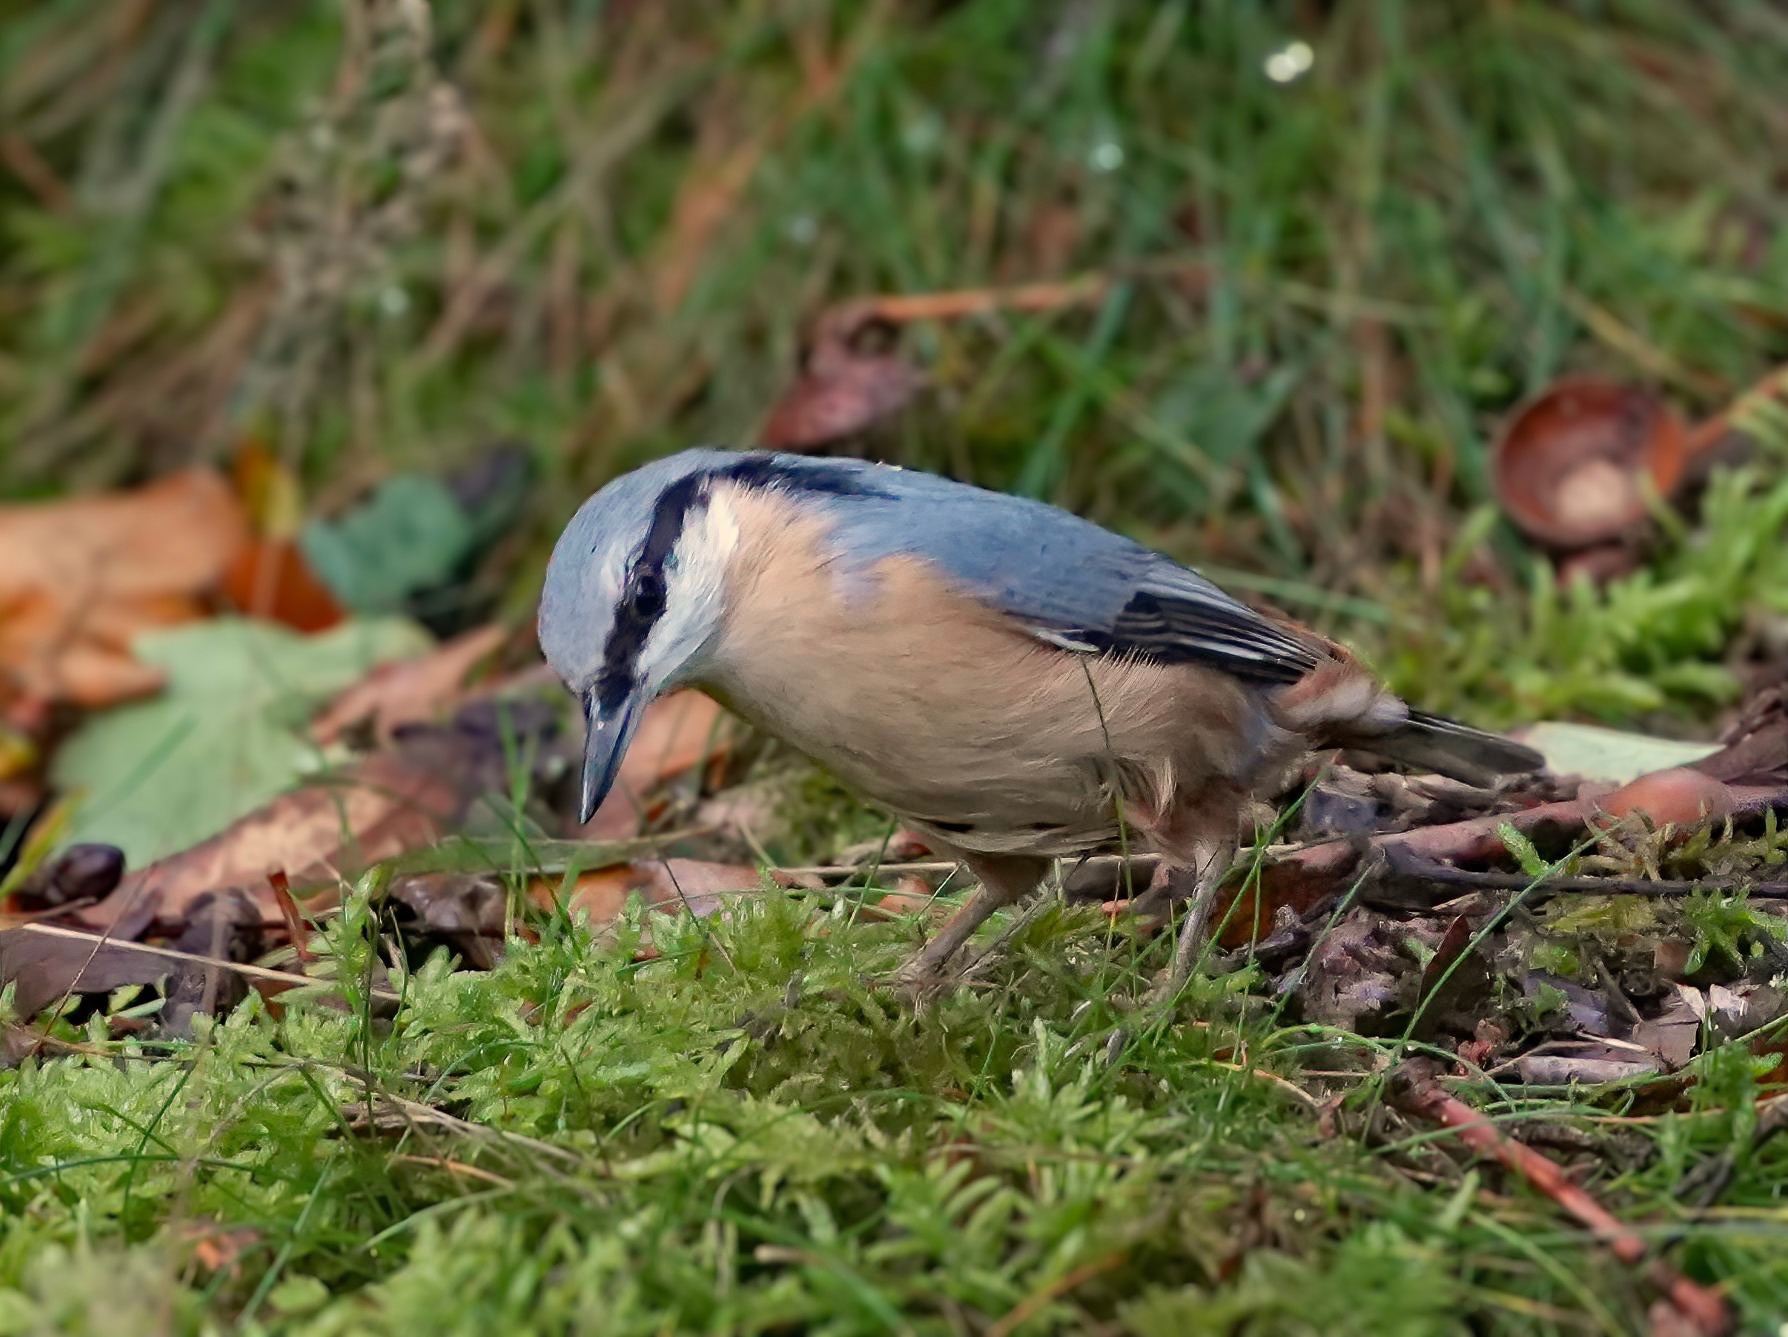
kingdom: Animalia
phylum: Chordata
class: Aves
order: Passeriformes
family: Sittidae
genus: Sitta
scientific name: Sitta europaea
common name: Spætmejse
